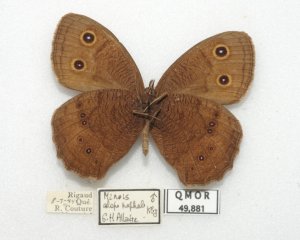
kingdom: Animalia
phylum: Arthropoda
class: Insecta
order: Lepidoptera
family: Nymphalidae
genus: Cercyonis
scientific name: Cercyonis pegala
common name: Common Wood-Nymph
